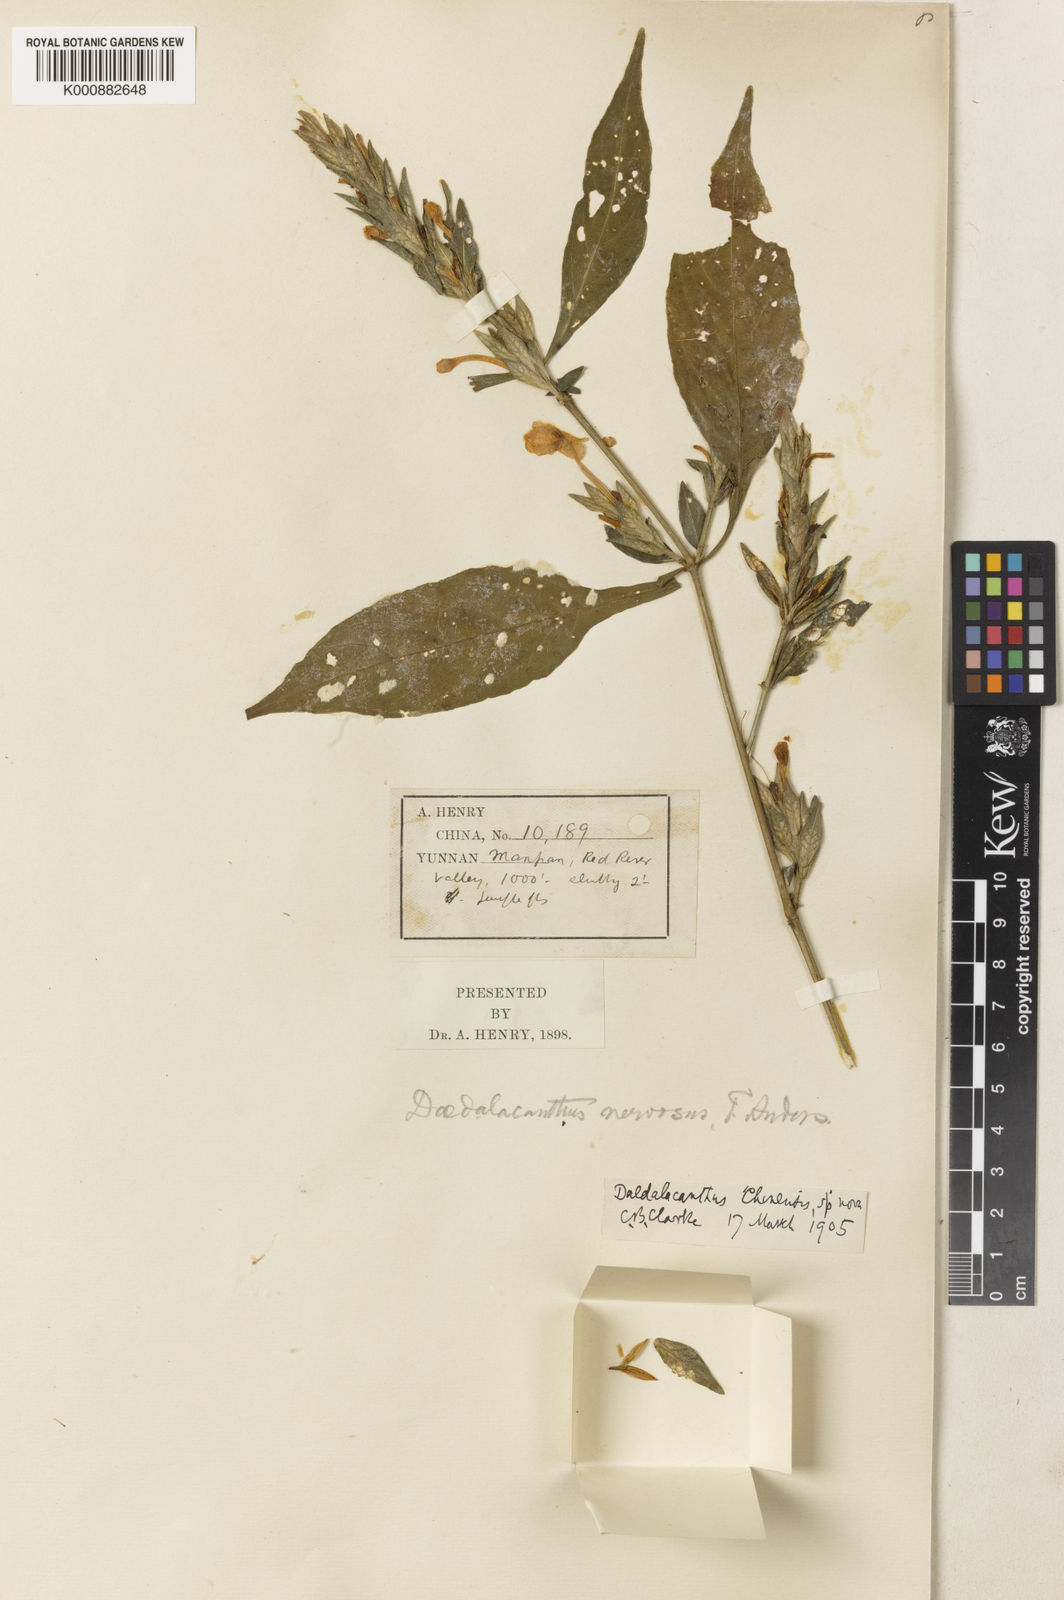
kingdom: Plantae
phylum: Tracheophyta
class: Magnoliopsida
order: Lamiales
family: Acanthaceae
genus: Eranthemum
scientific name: Eranthemum ciliatum
